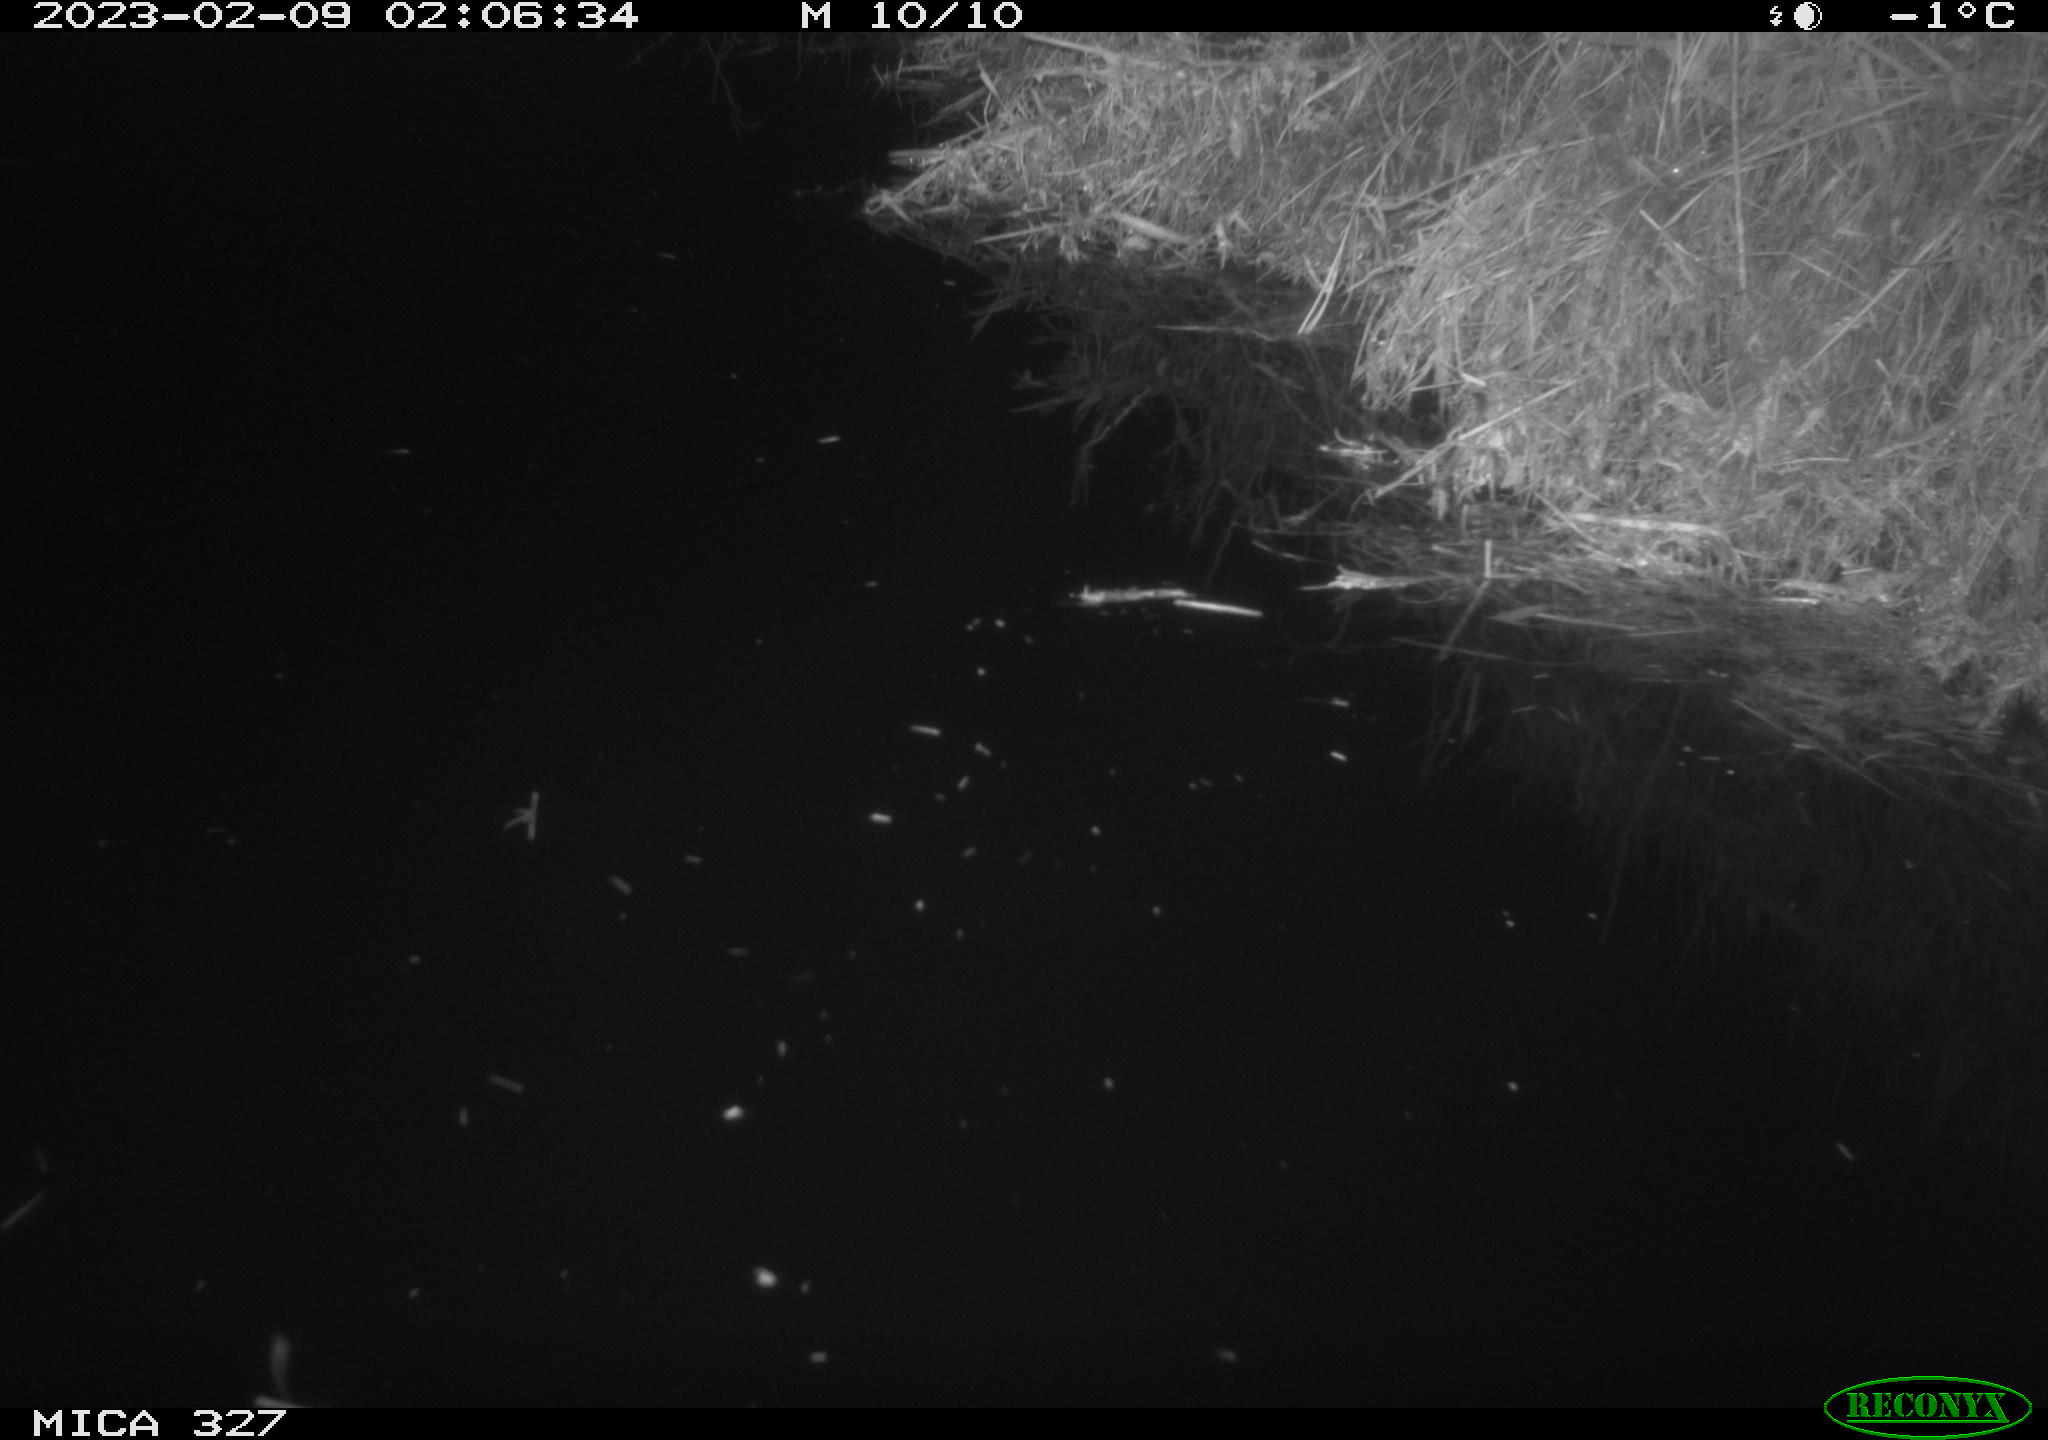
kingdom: Animalia
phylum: Chordata
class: Mammalia
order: Rodentia
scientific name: Rodentia
